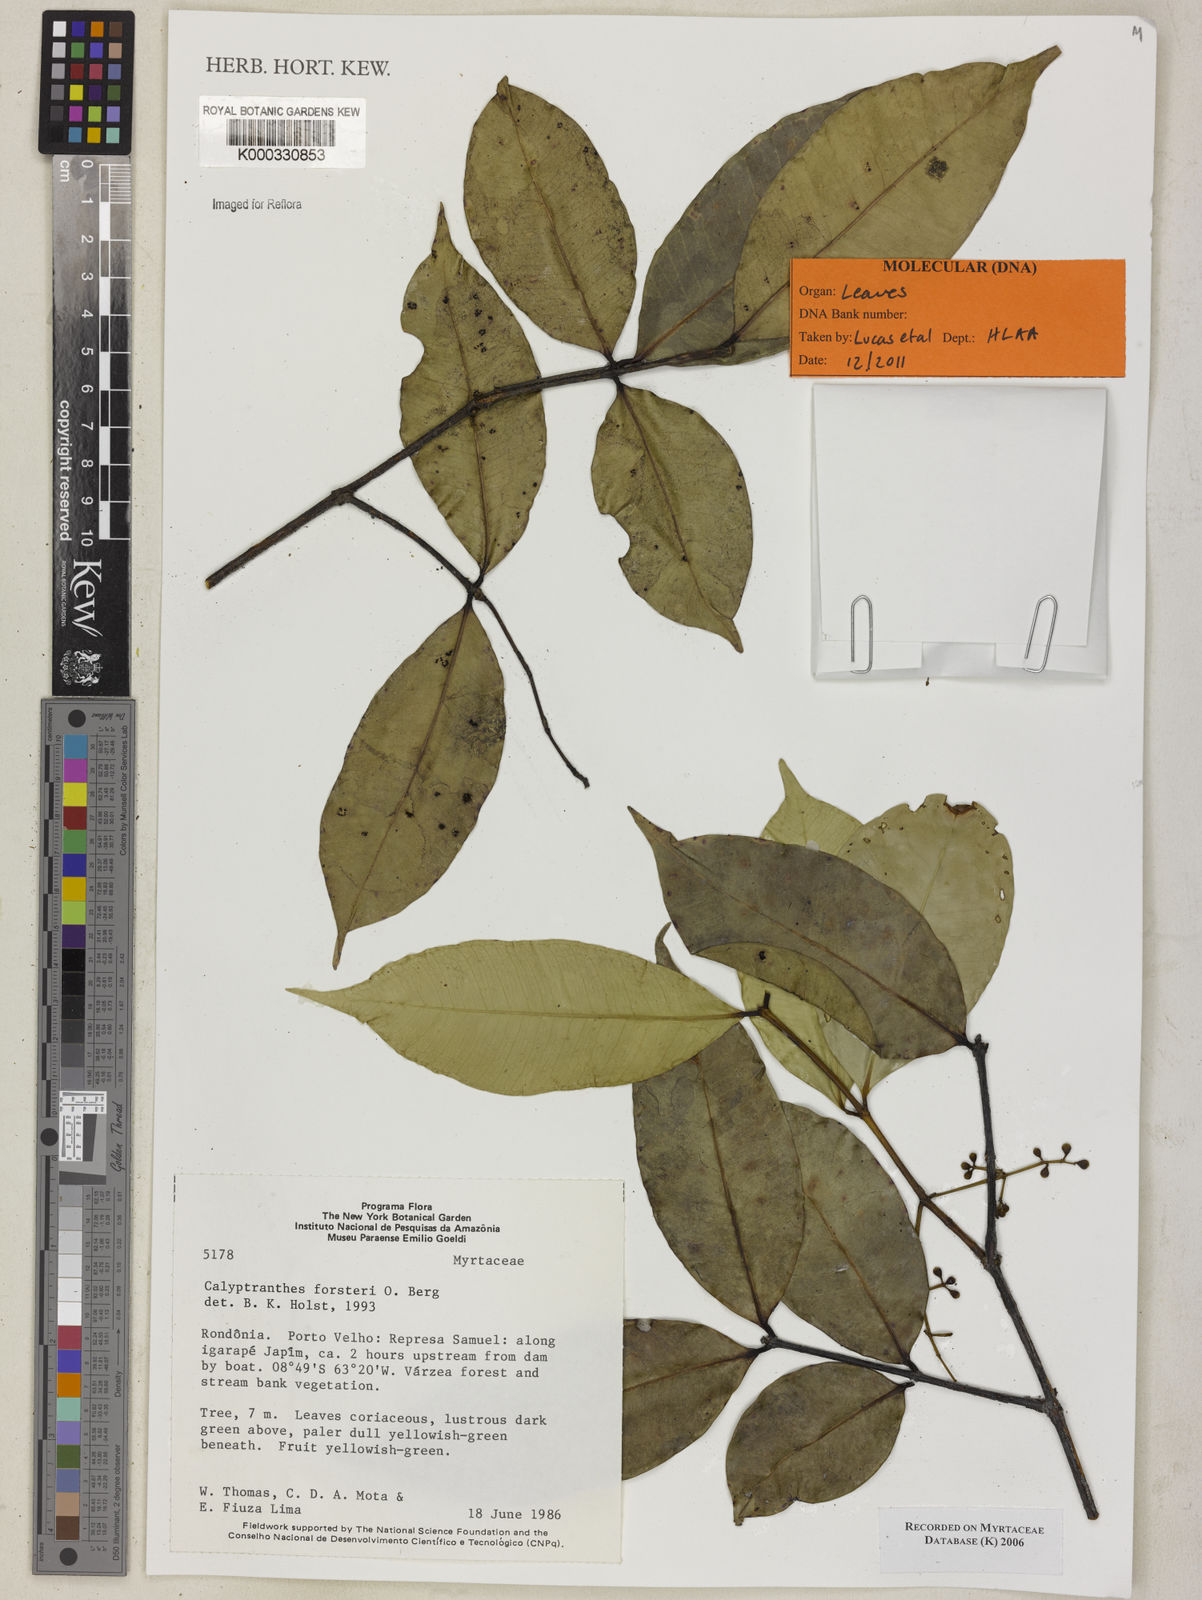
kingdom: Plantae
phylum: Tracheophyta
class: Magnoliopsida
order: Myrtales
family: Myrtaceae
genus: Myrcia
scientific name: Myrcia forsteri
